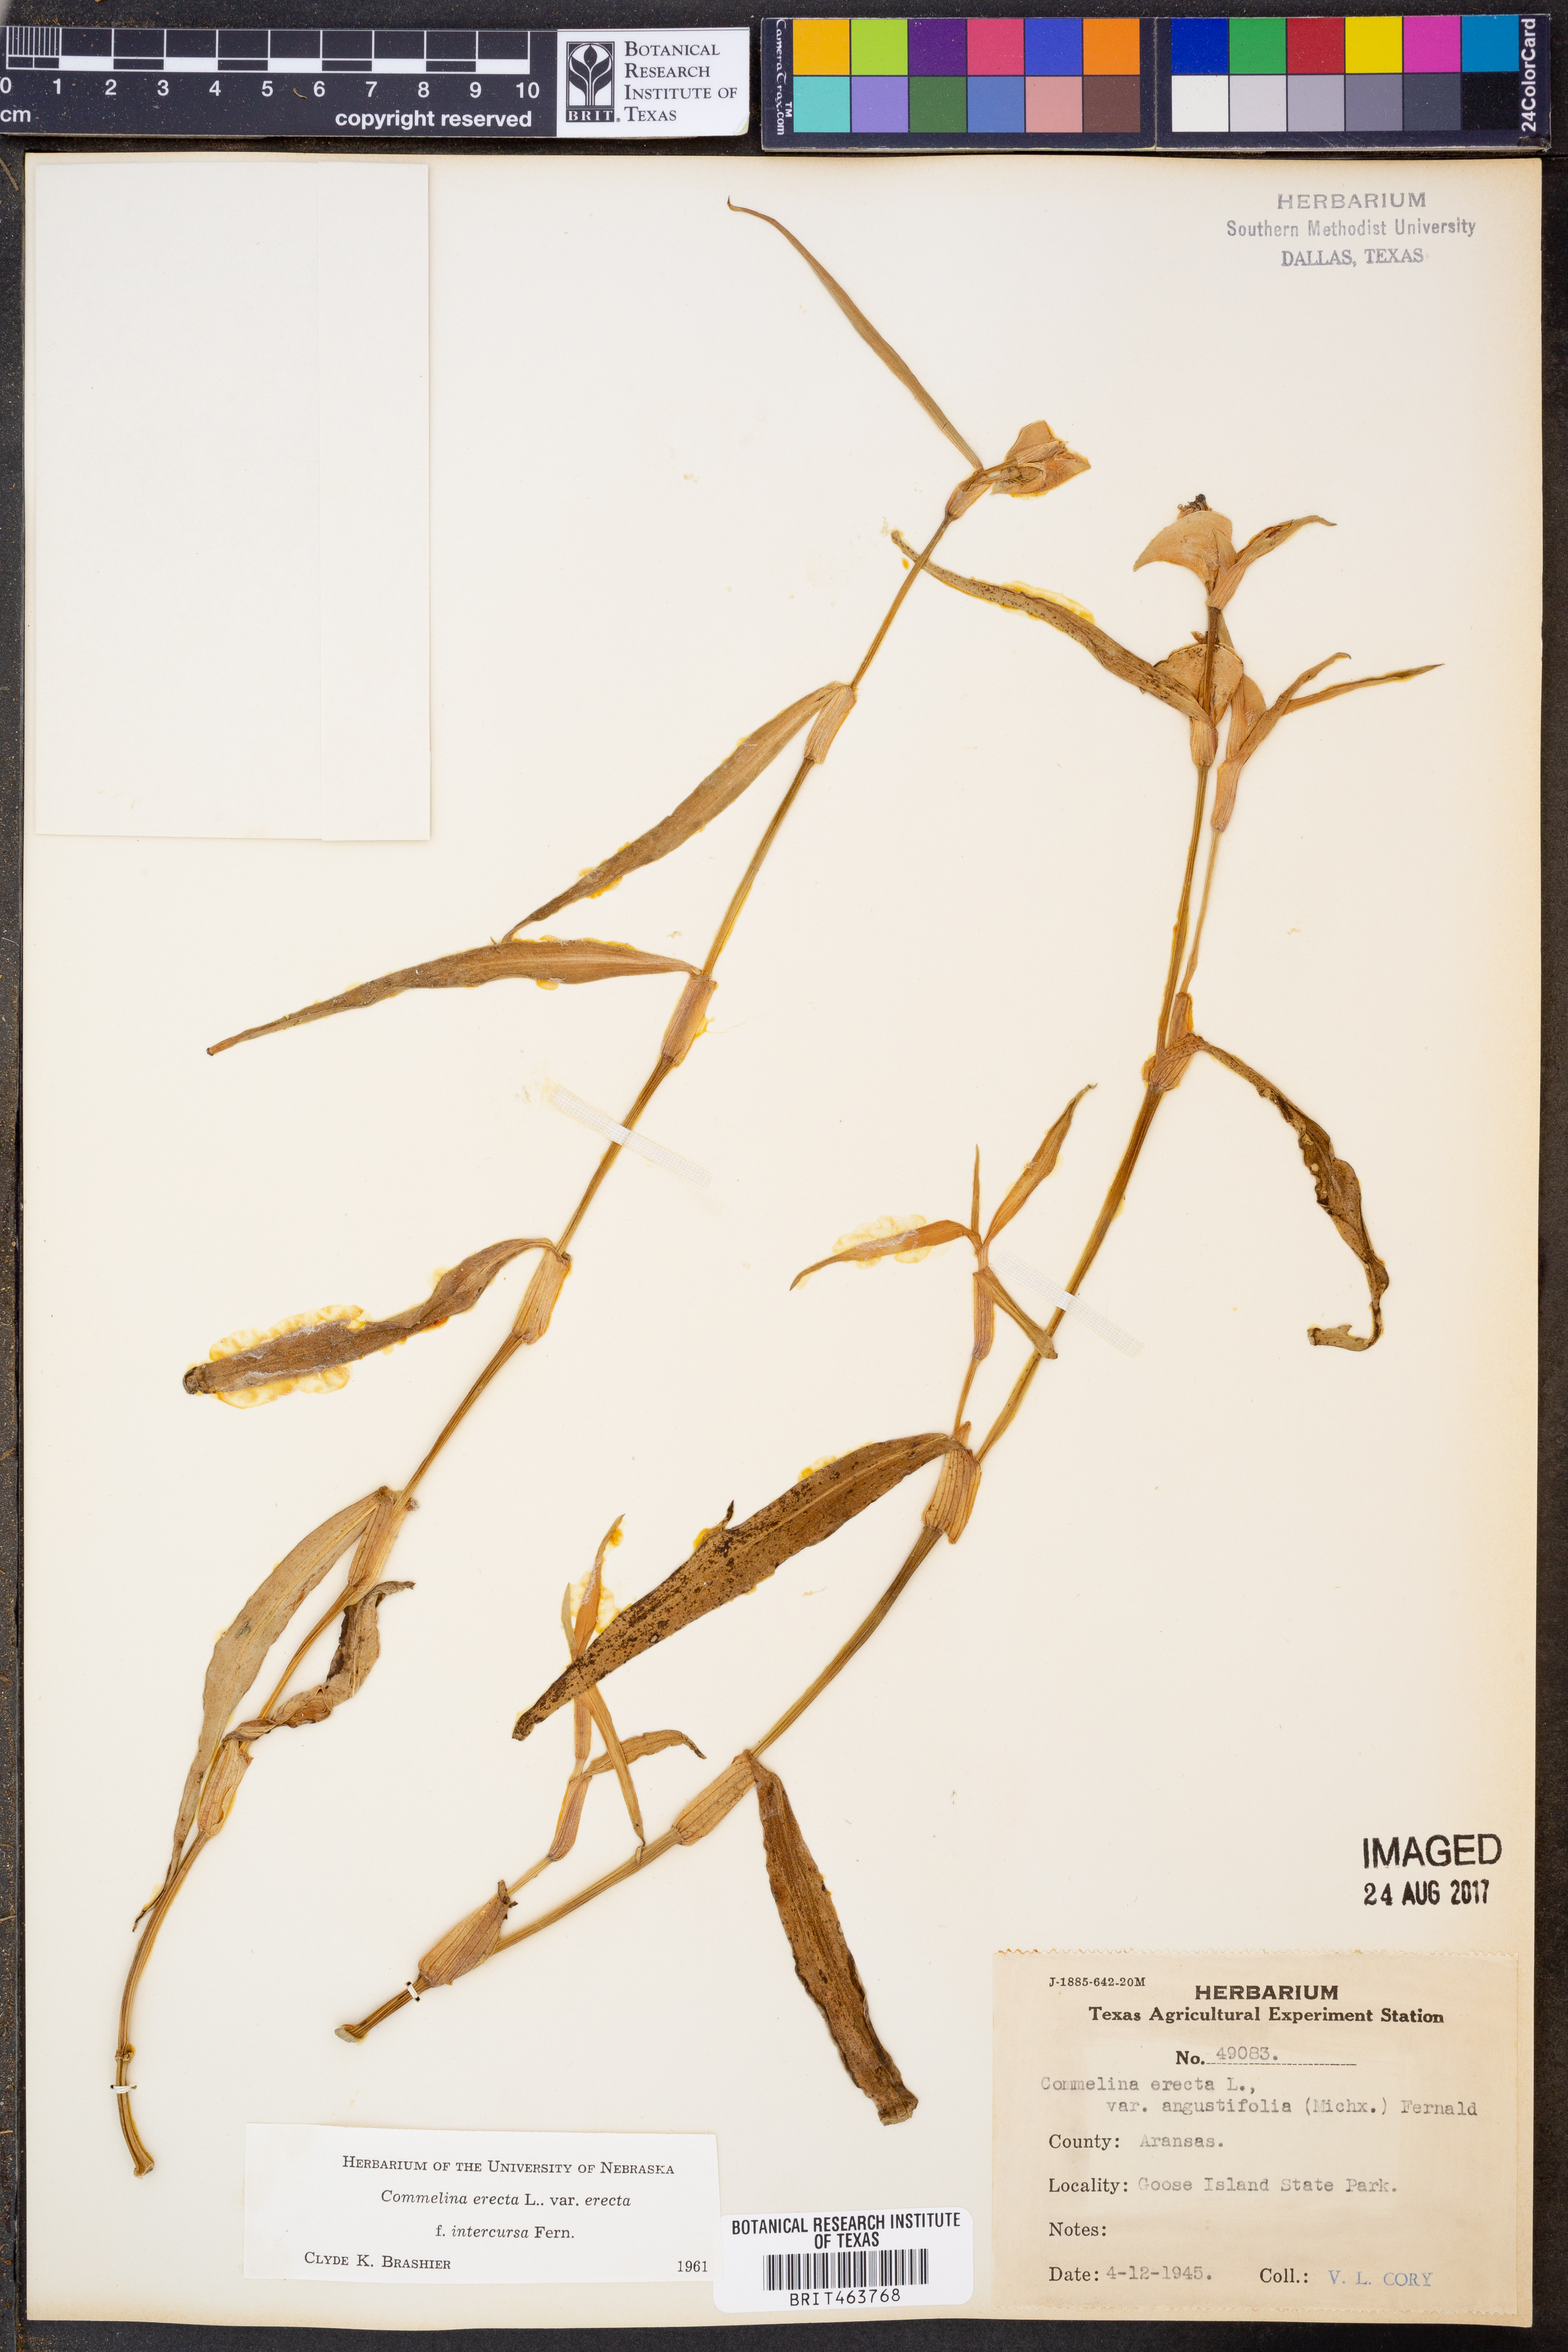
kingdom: Plantae
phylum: Tracheophyta
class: Liliopsida
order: Commelinales
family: Commelinaceae
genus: Commelina
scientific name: Commelina erecta
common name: Blousel blommetjie
